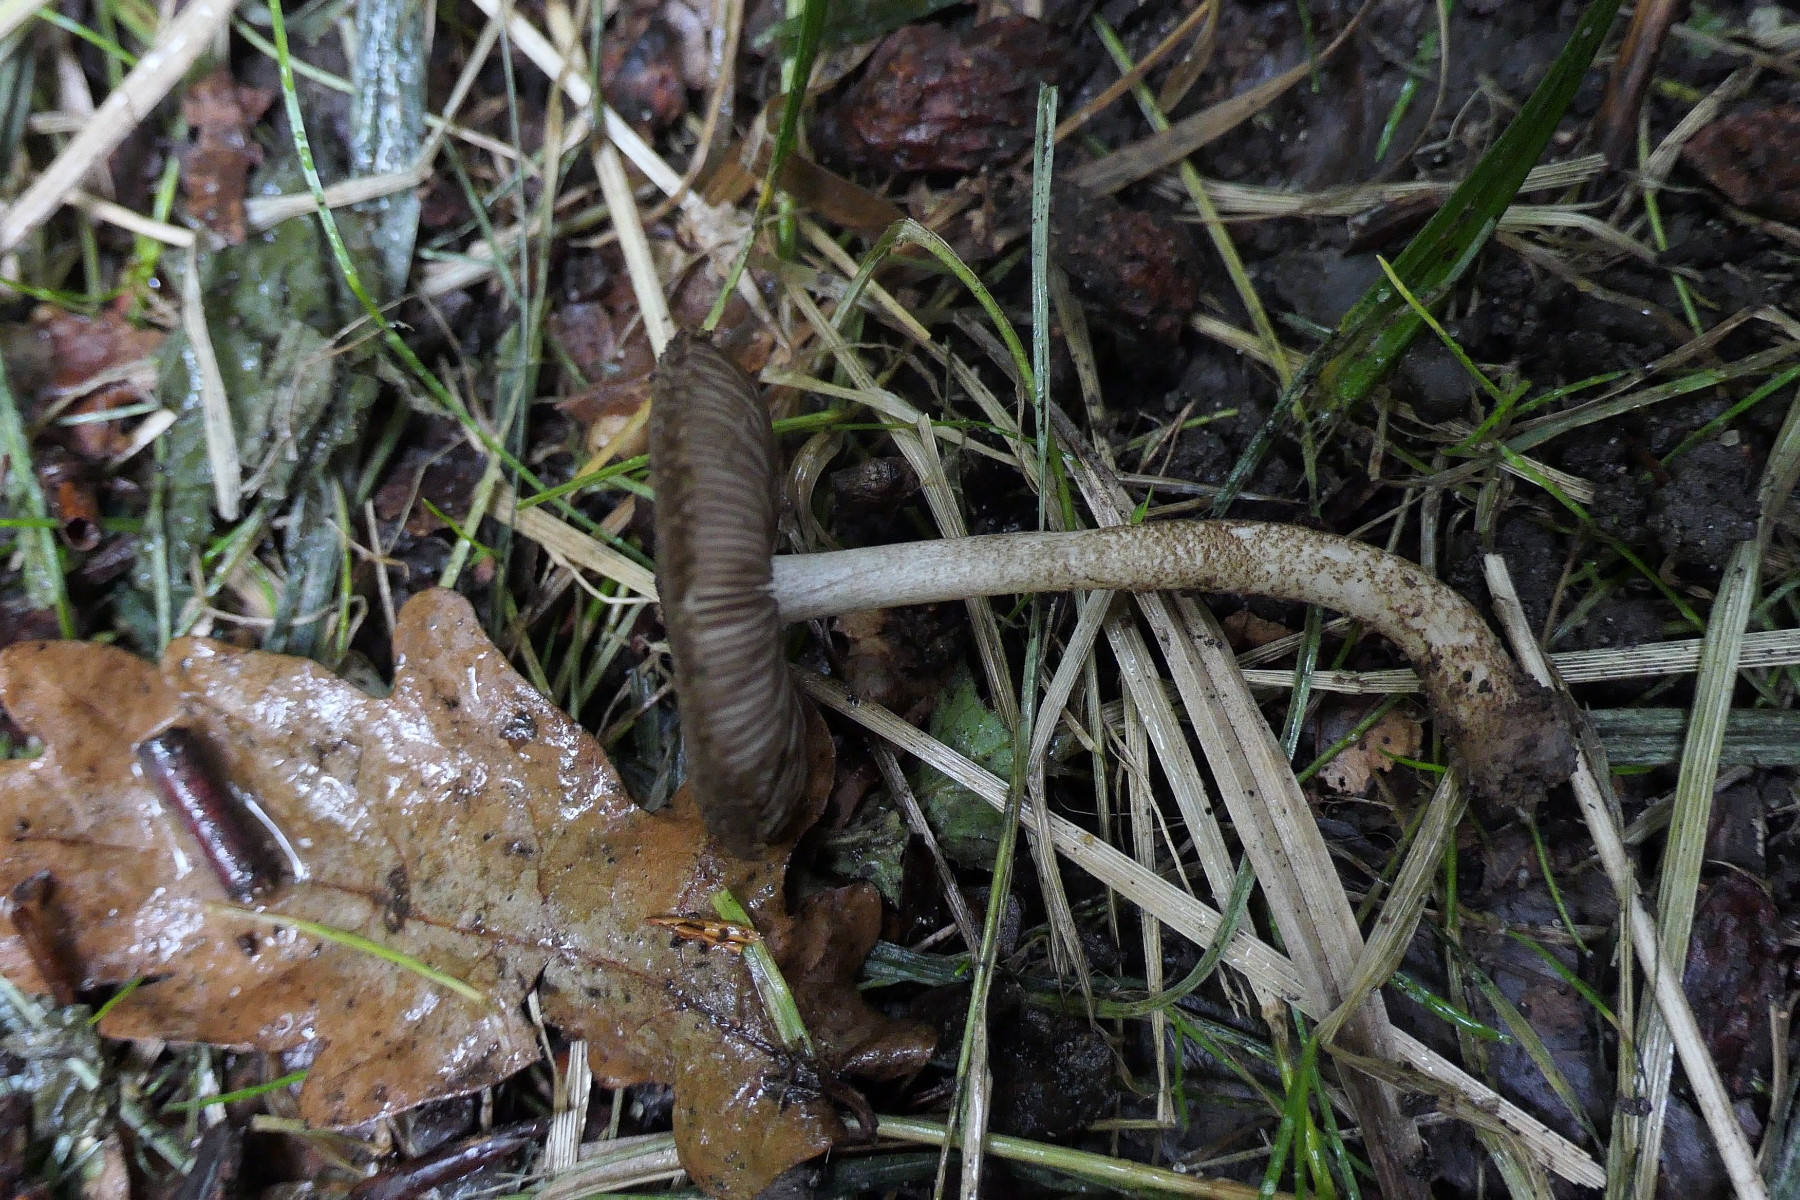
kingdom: Fungi
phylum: Basidiomycota
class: Agaricomycetes
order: Agaricales
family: Pluteaceae
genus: Pluteus
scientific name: Pluteus umbrosus
